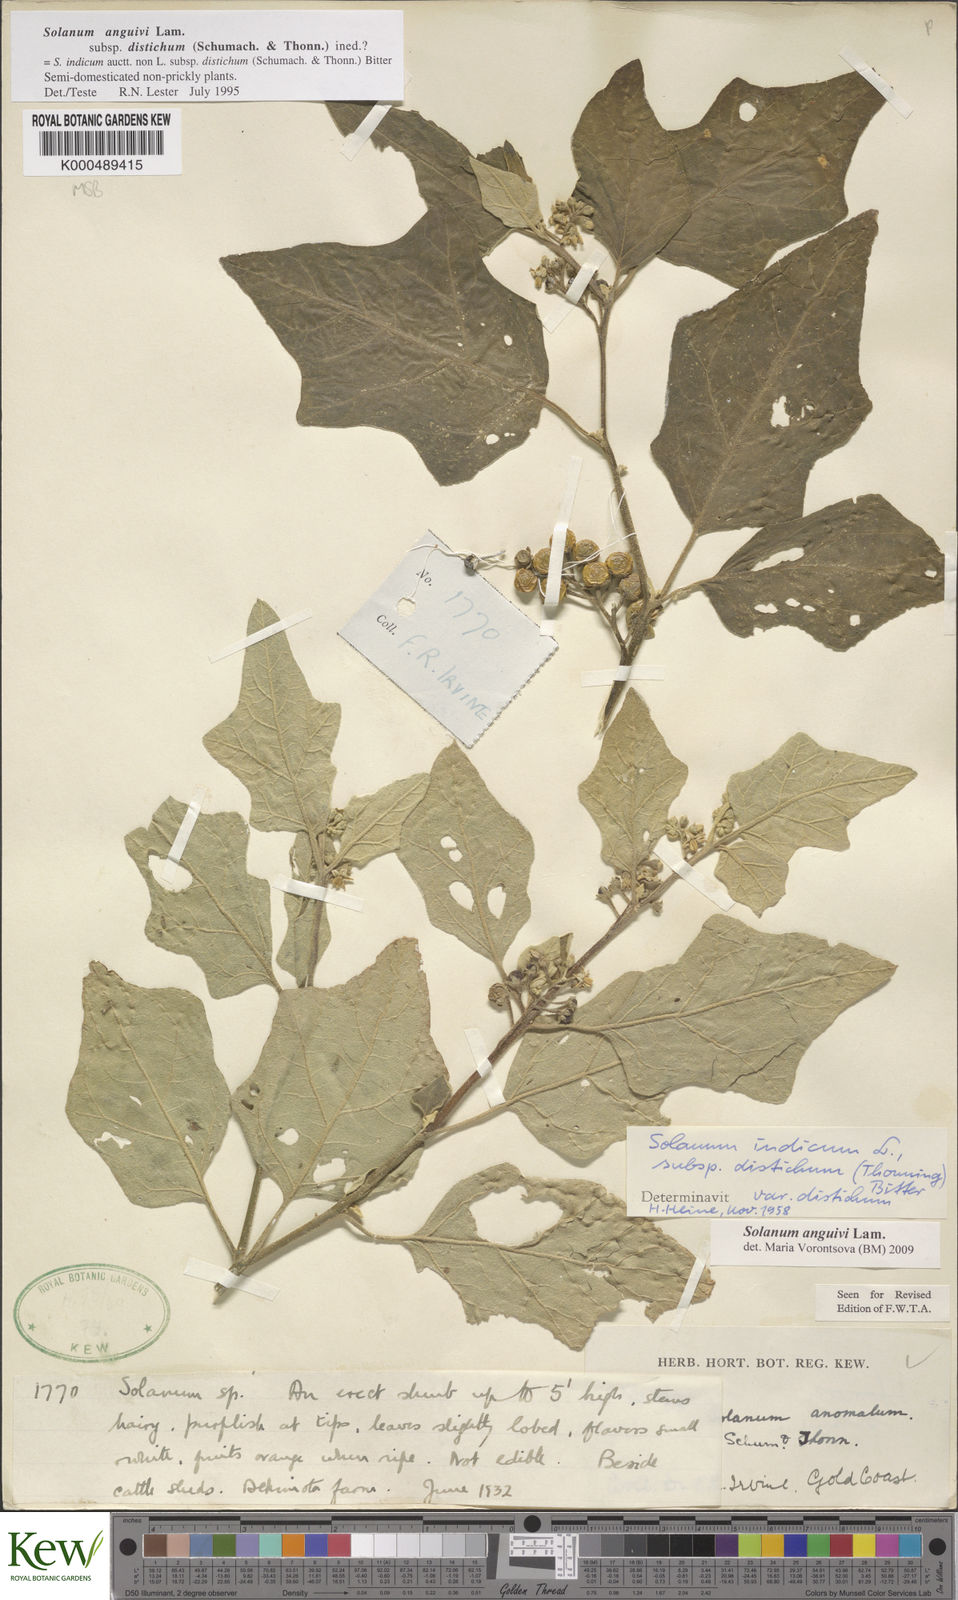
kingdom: Plantae
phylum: Tracheophyta
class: Magnoliopsida
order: Solanales
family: Solanaceae
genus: Solanum
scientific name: Solanum anguivi
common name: Forest bitterberry
